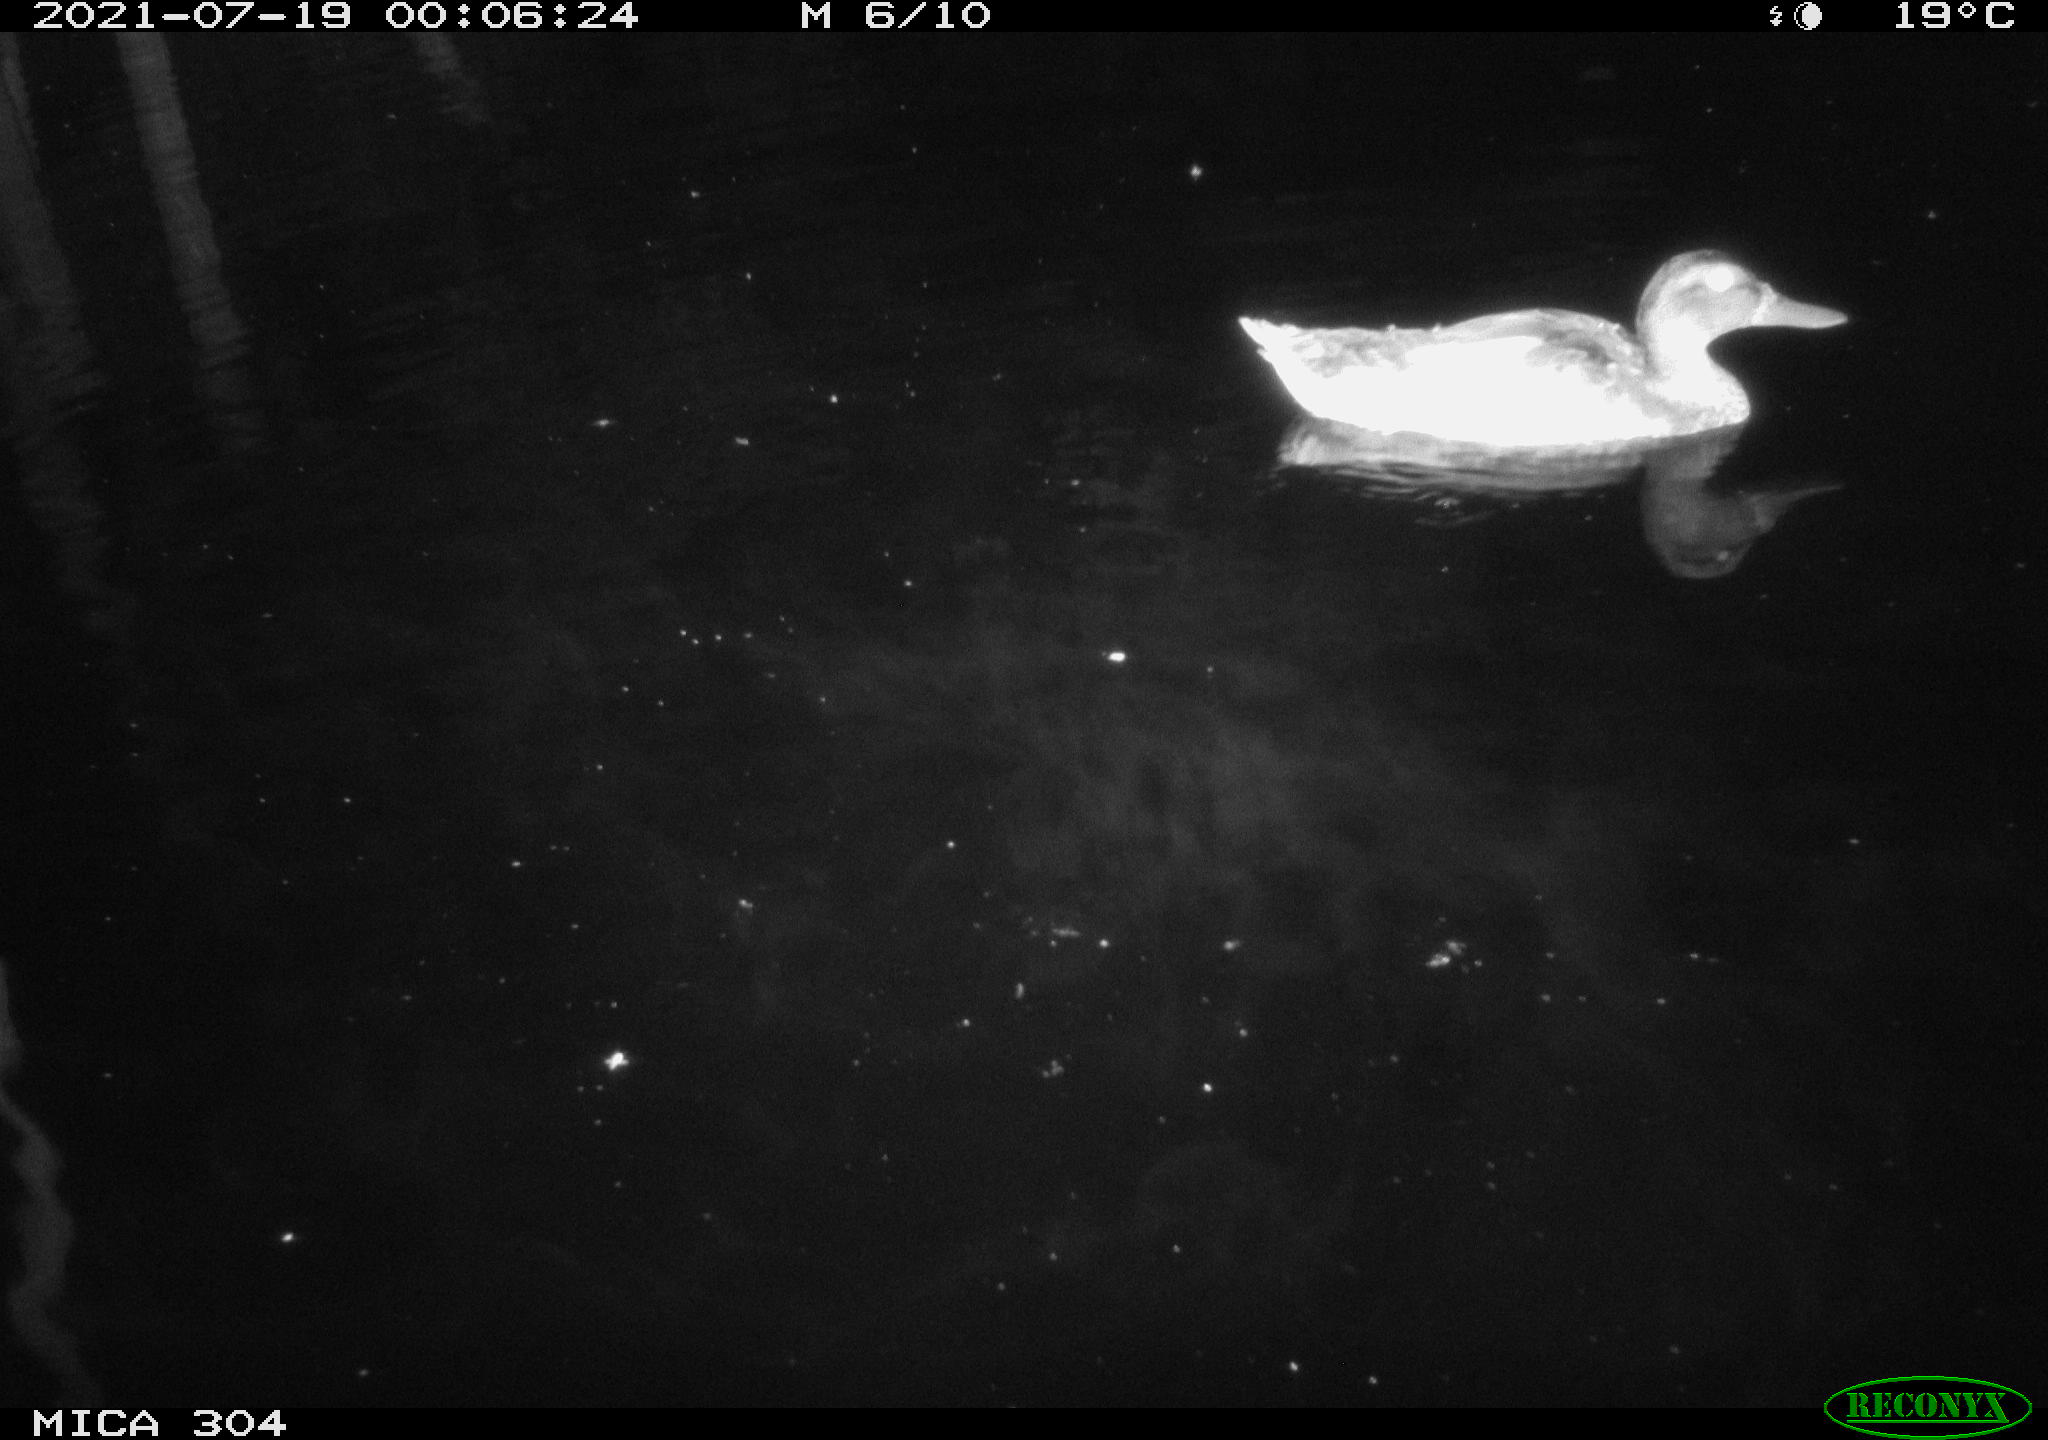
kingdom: Animalia
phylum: Chordata
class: Aves
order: Anseriformes
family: Anatidae
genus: Anas
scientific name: Anas platyrhynchos
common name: Mallard
